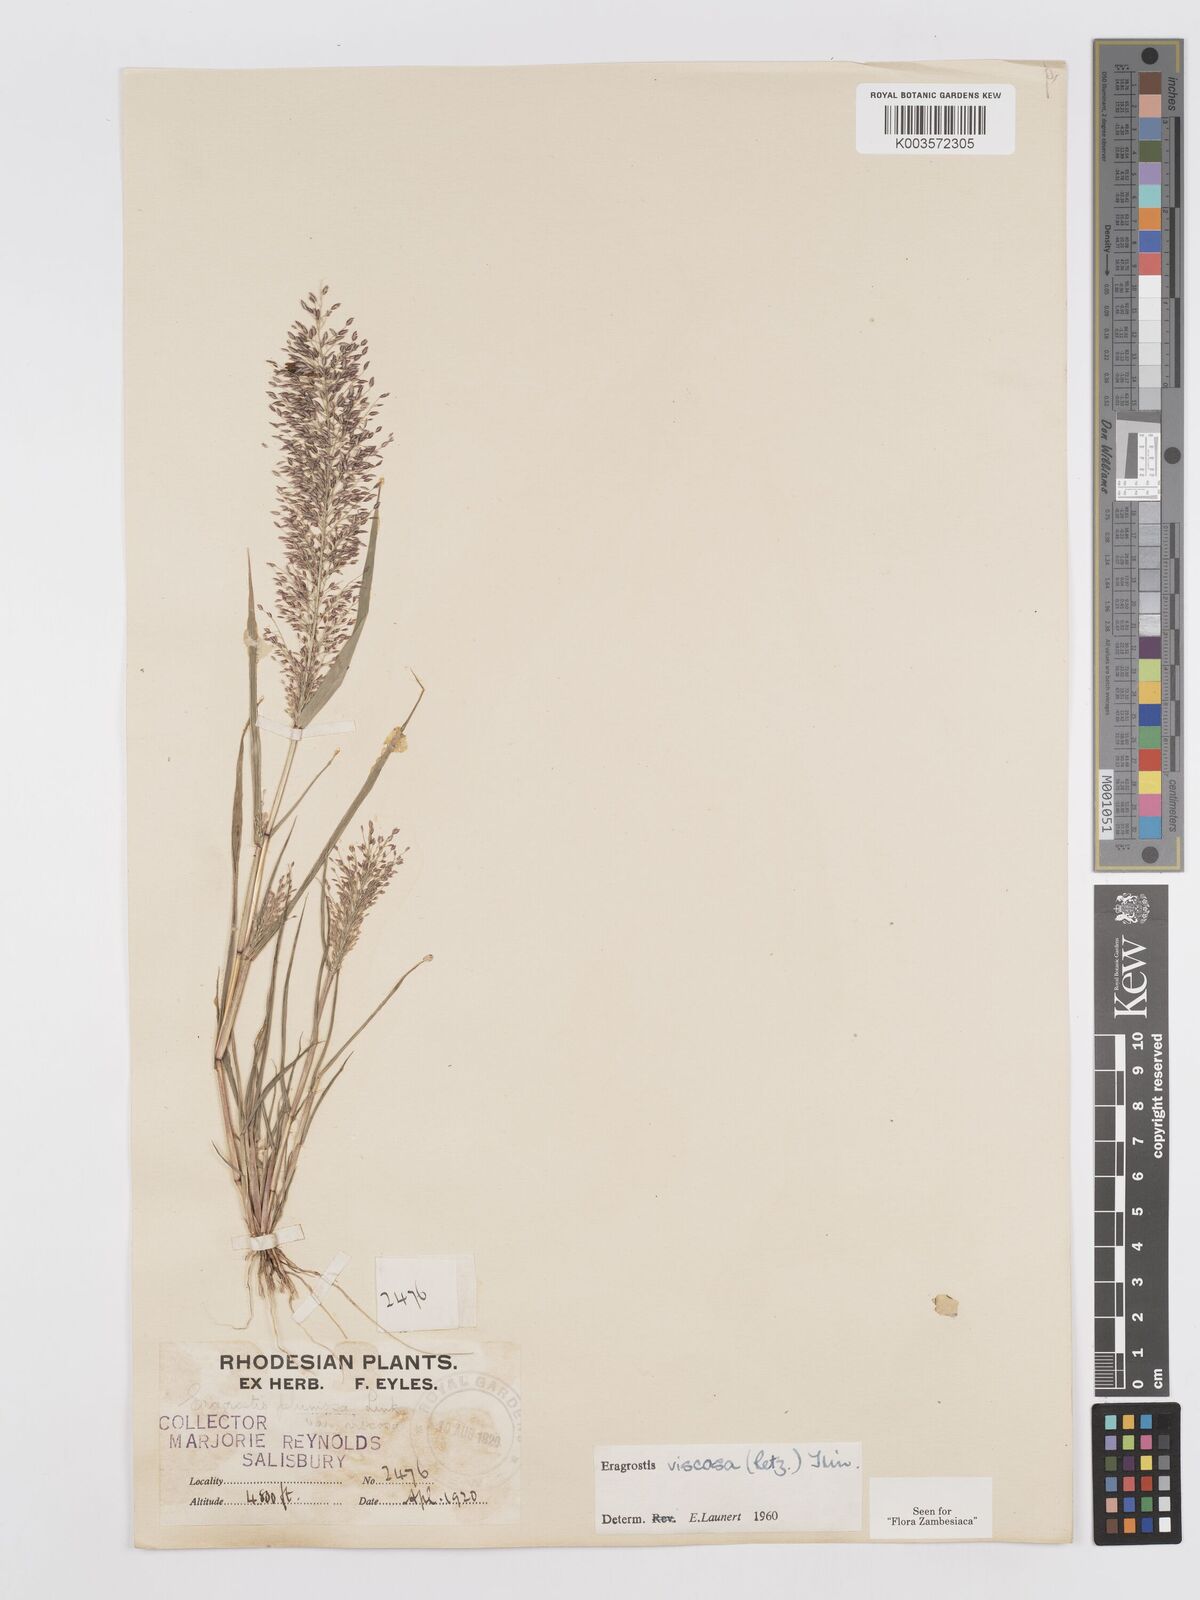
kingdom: Plantae
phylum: Tracheophyta
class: Liliopsida
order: Poales
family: Poaceae
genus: Eragrostis
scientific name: Eragrostis
